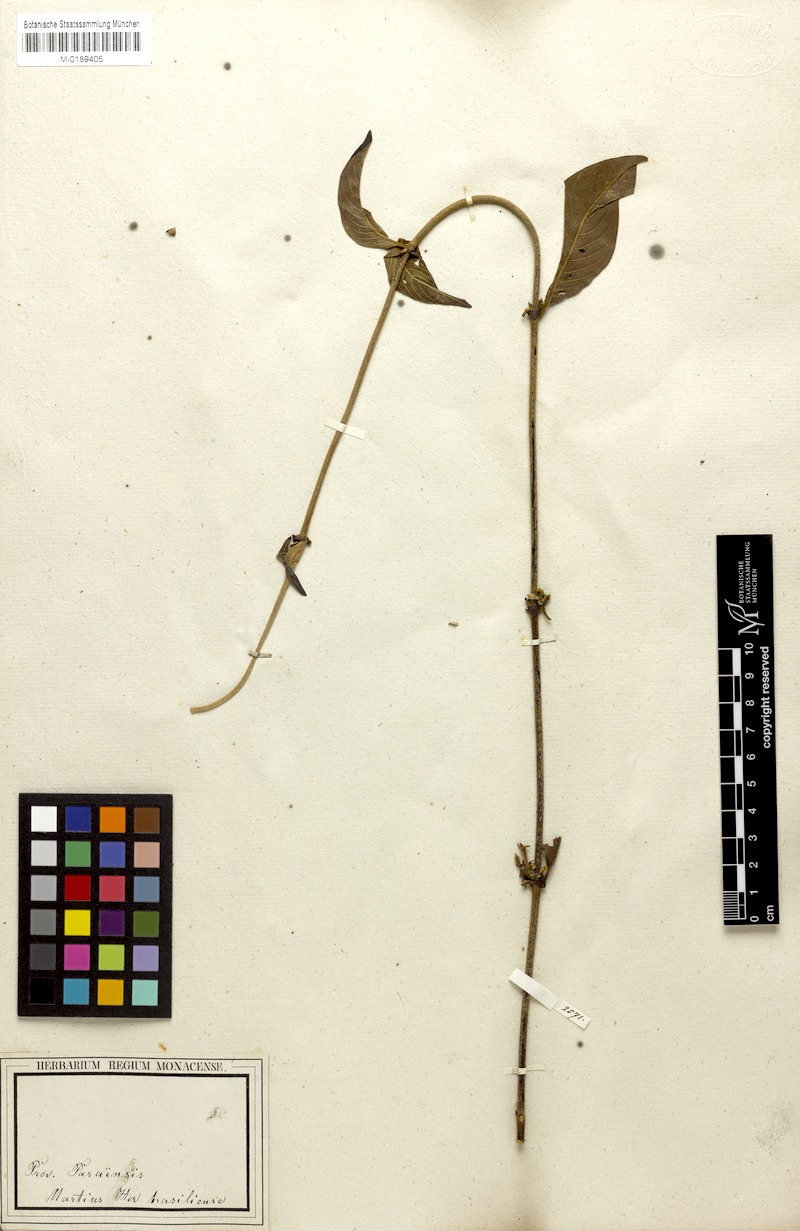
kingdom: Plantae
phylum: Tracheophyta
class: Magnoliopsida
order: Gentianales
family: Rubiaceae
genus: Sabicea
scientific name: Sabicea panamensis
